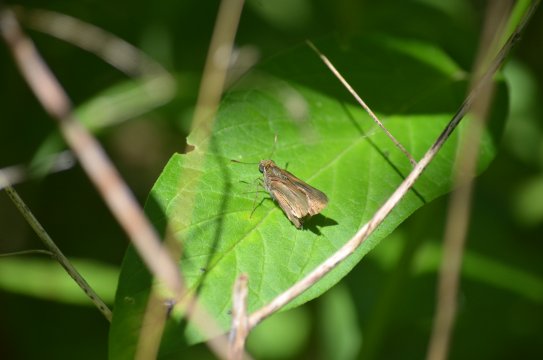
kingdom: Animalia
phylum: Arthropoda
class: Insecta
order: Lepidoptera
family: Hesperiidae
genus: Euphyes
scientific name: Euphyes vestris
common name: Dun Skipper
